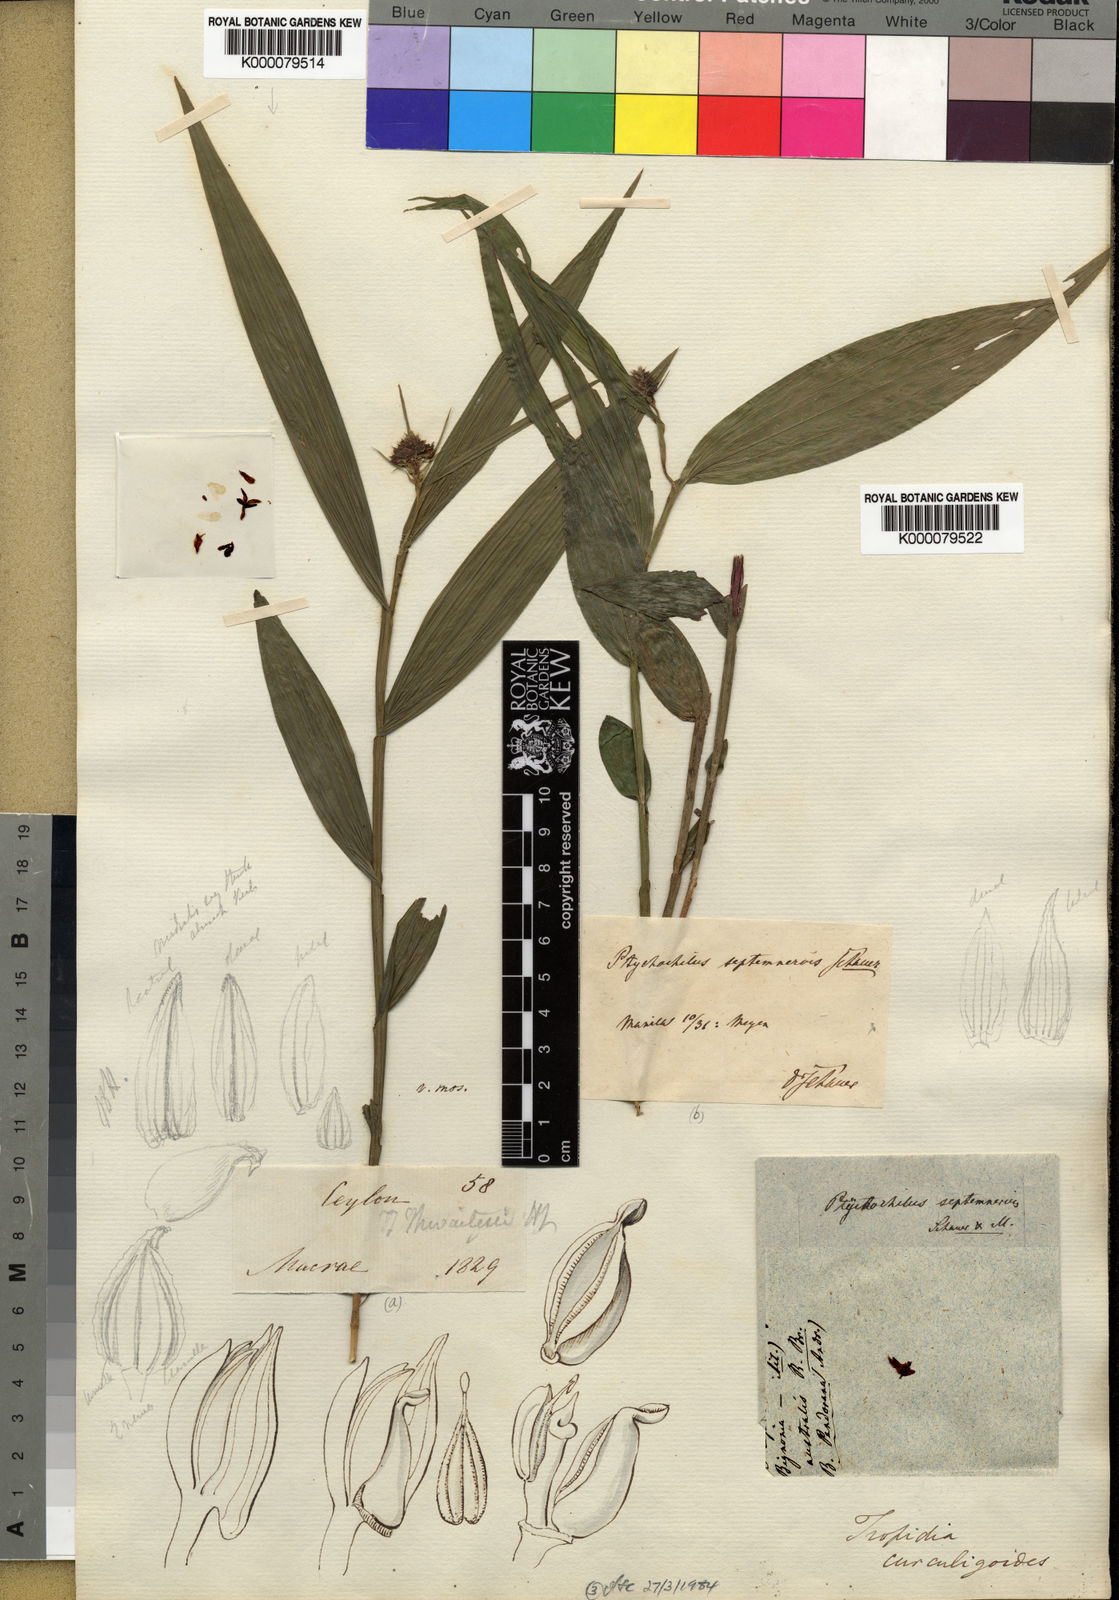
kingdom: Plantae
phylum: Tracheophyta
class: Liliopsida
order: Asparagales
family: Orchidaceae
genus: Tropidia
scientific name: Tropidia septemnervis
